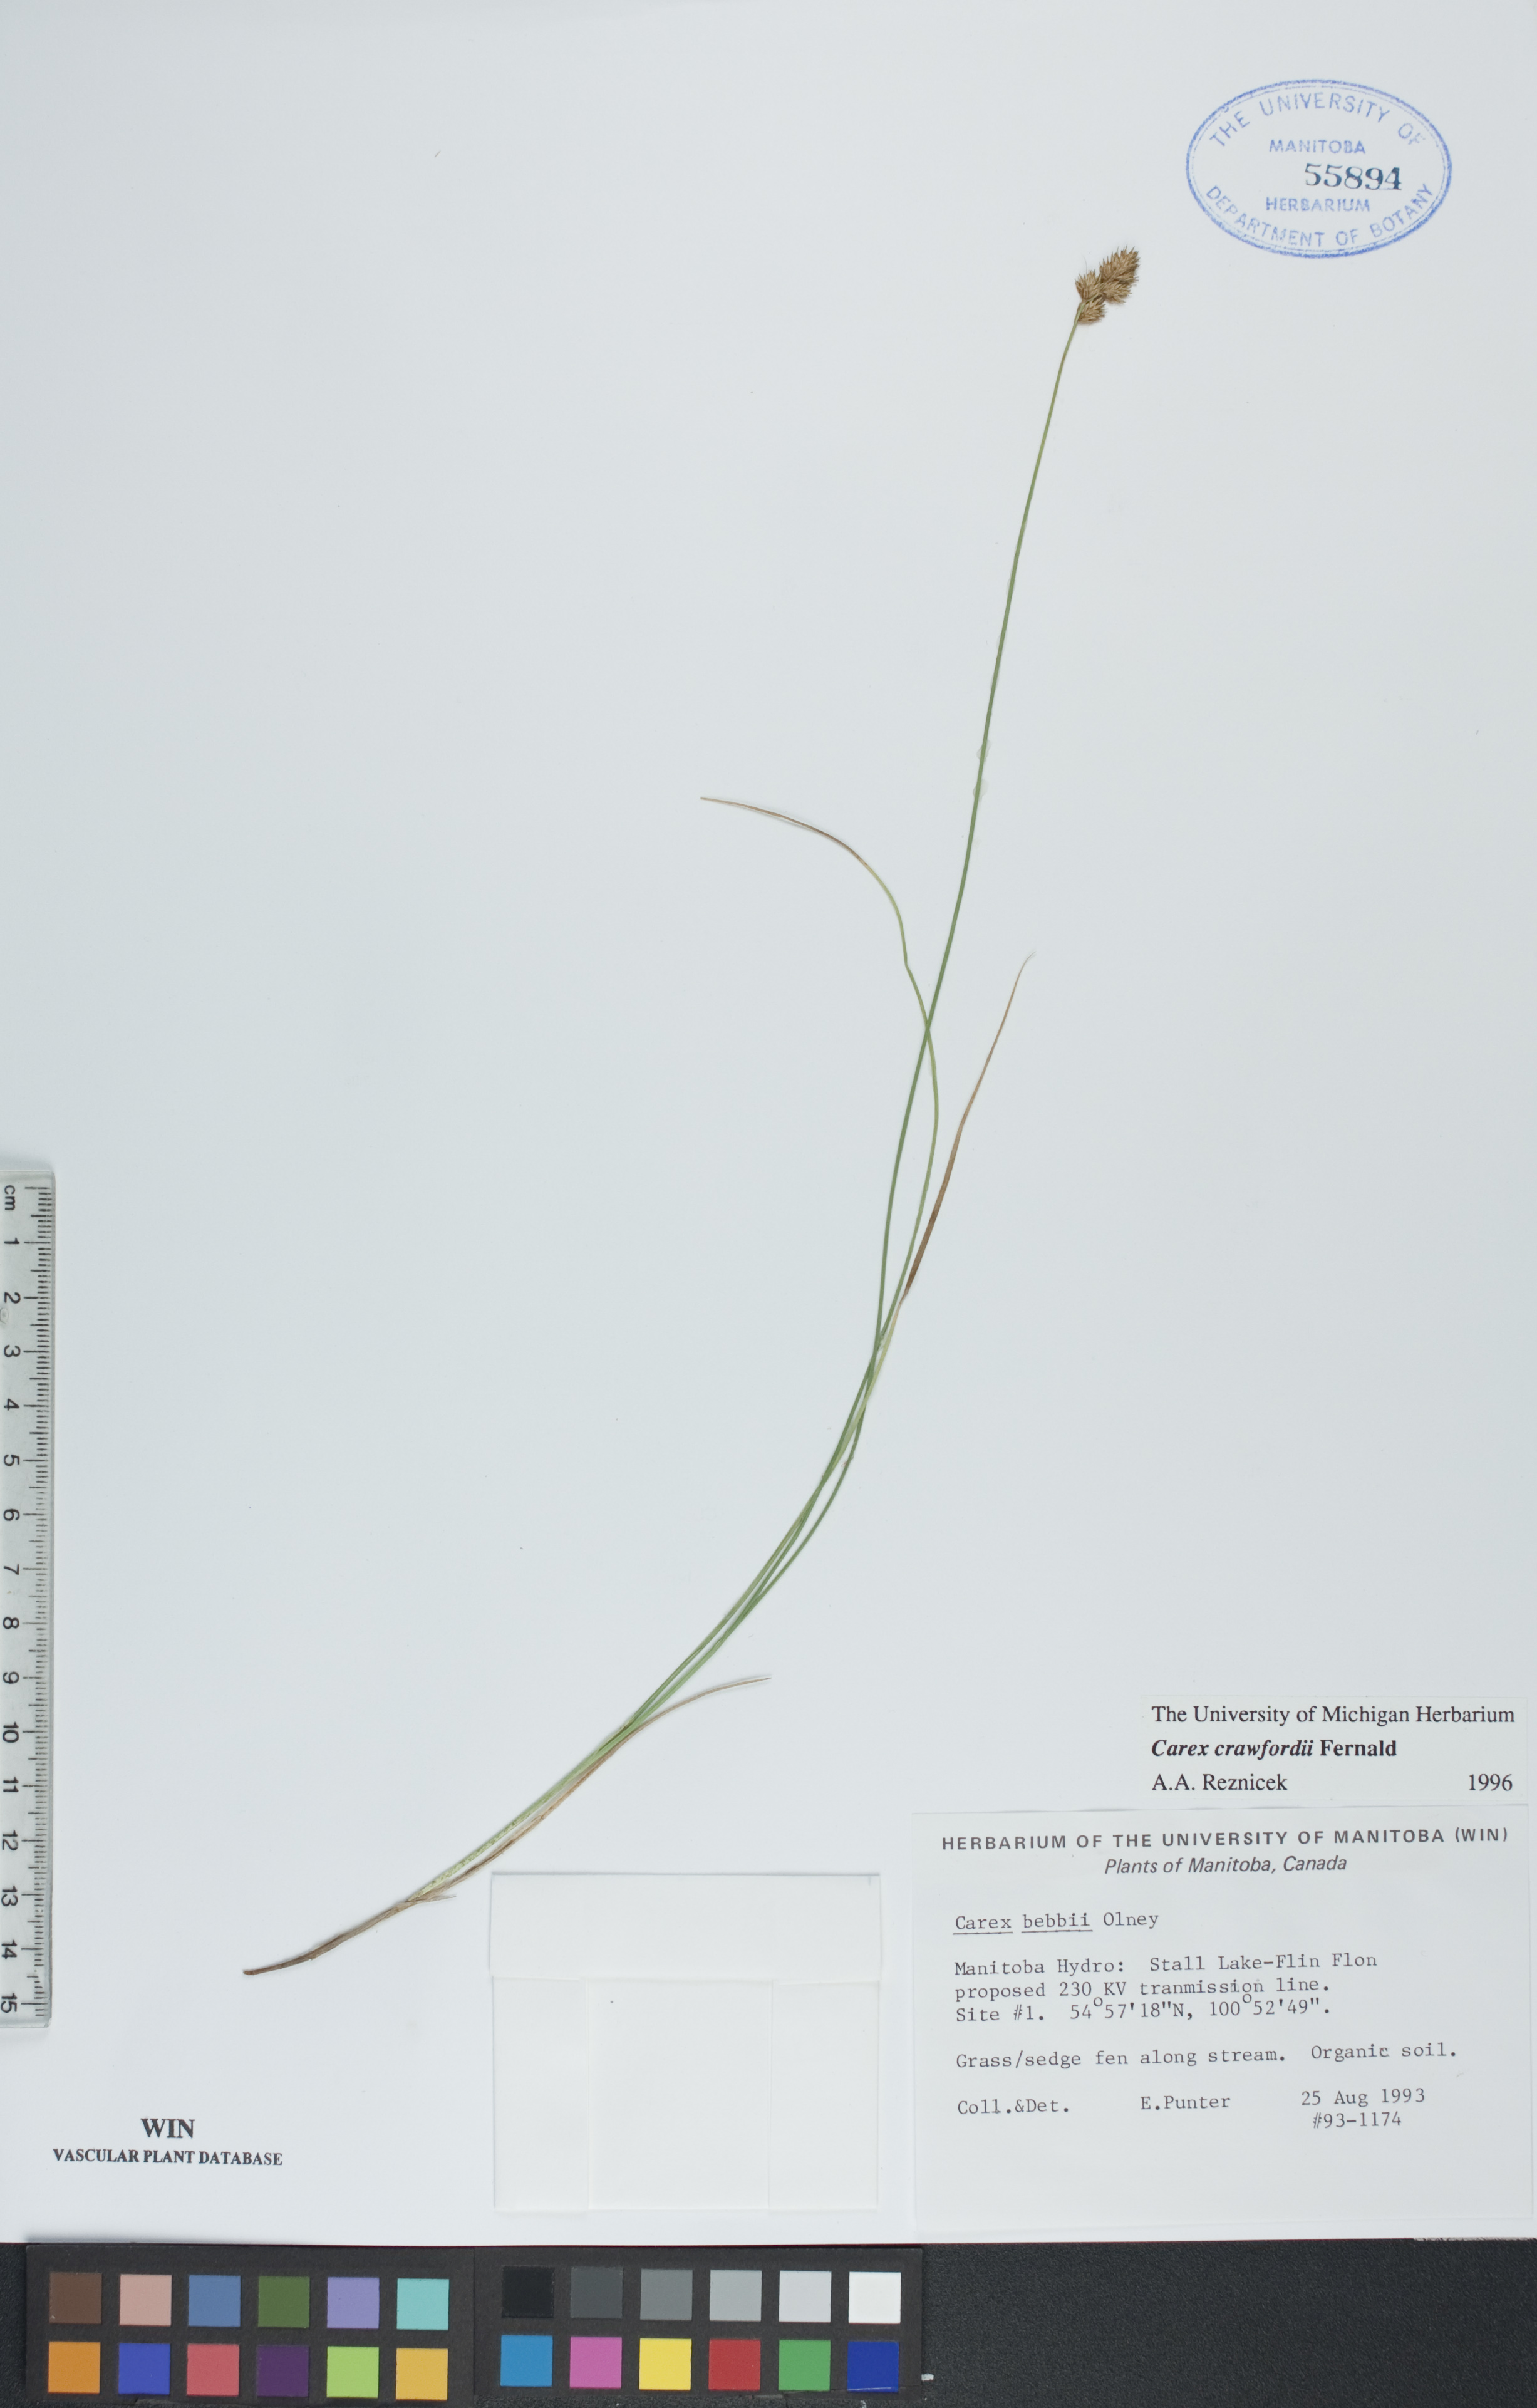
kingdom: Plantae
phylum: Tracheophyta
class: Liliopsida
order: Poales
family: Cyperaceae
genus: Carex
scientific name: Carex bebbii
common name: Bebb's sedge
